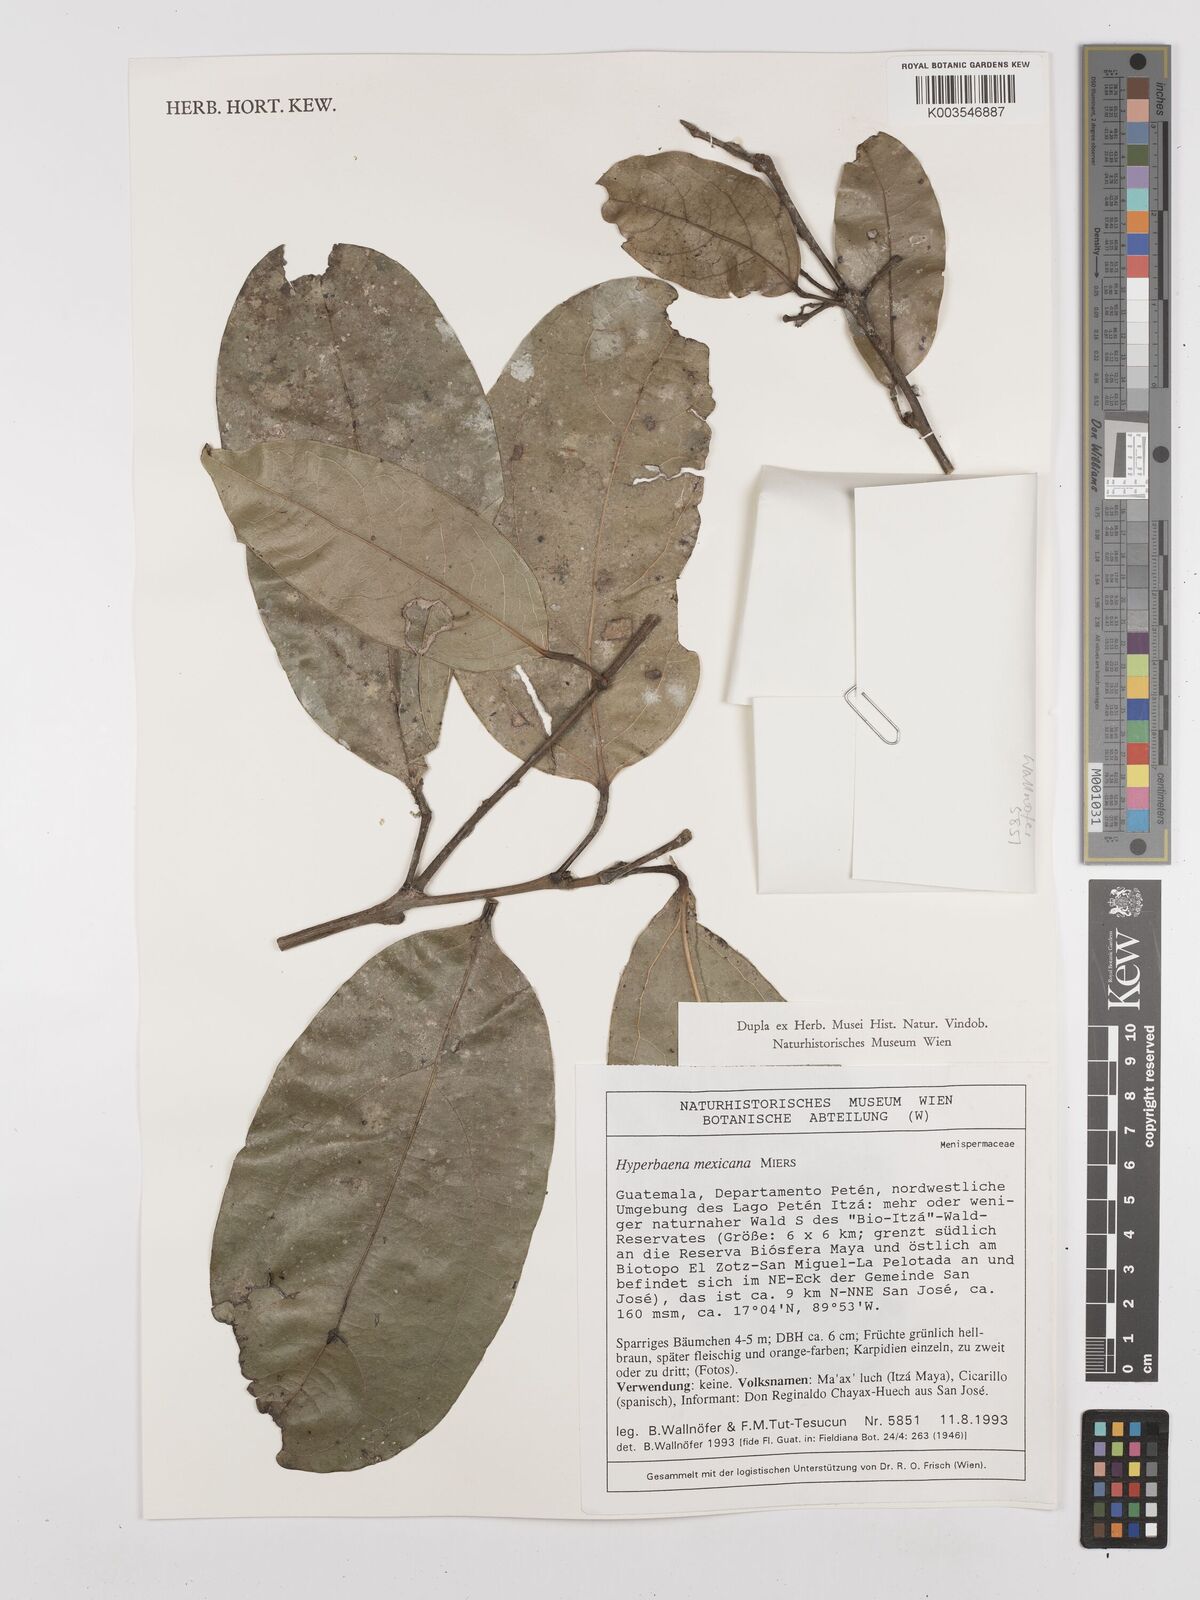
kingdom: Plantae
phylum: Tracheophyta
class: Magnoliopsida
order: Ranunculales
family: Menispermaceae
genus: Hyperbaena
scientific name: Hyperbaena mexicana
